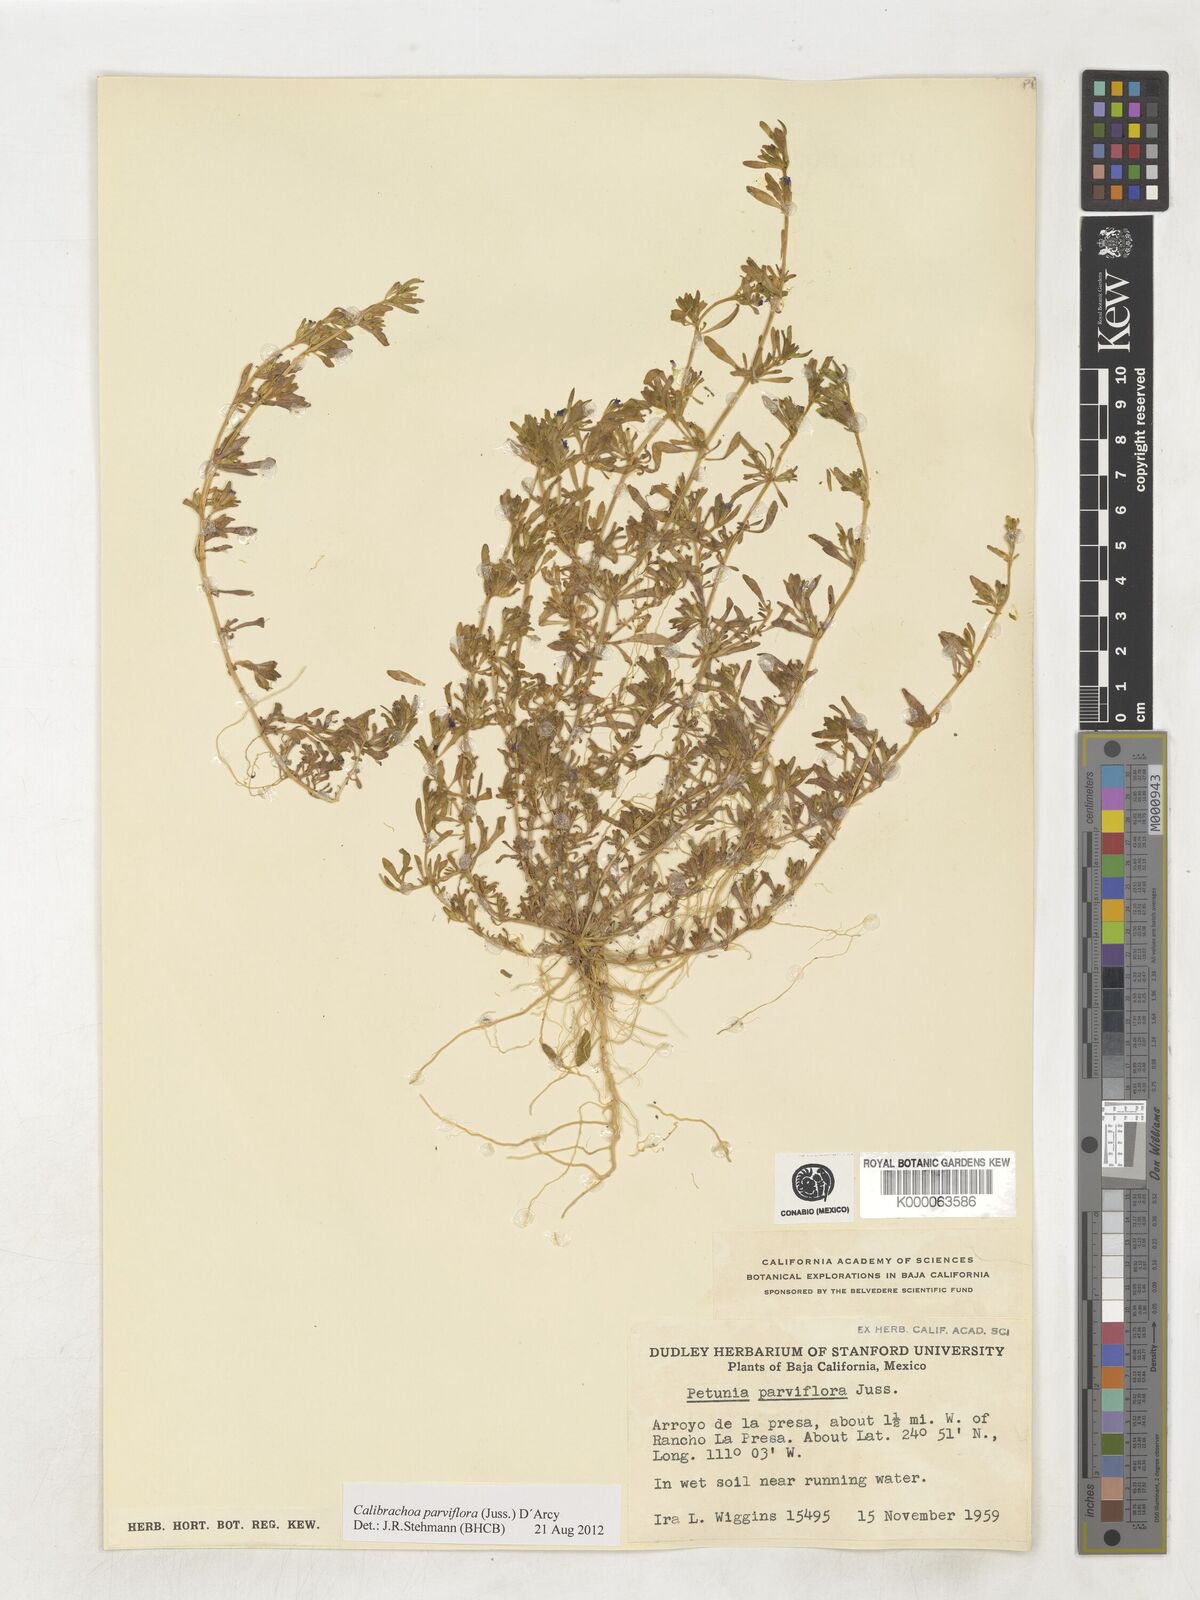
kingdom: Plantae
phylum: Tracheophyta
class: Magnoliopsida
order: Solanales
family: Solanaceae
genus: Calibrachoa
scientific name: Calibrachoa parviflora
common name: Seaside petunia
